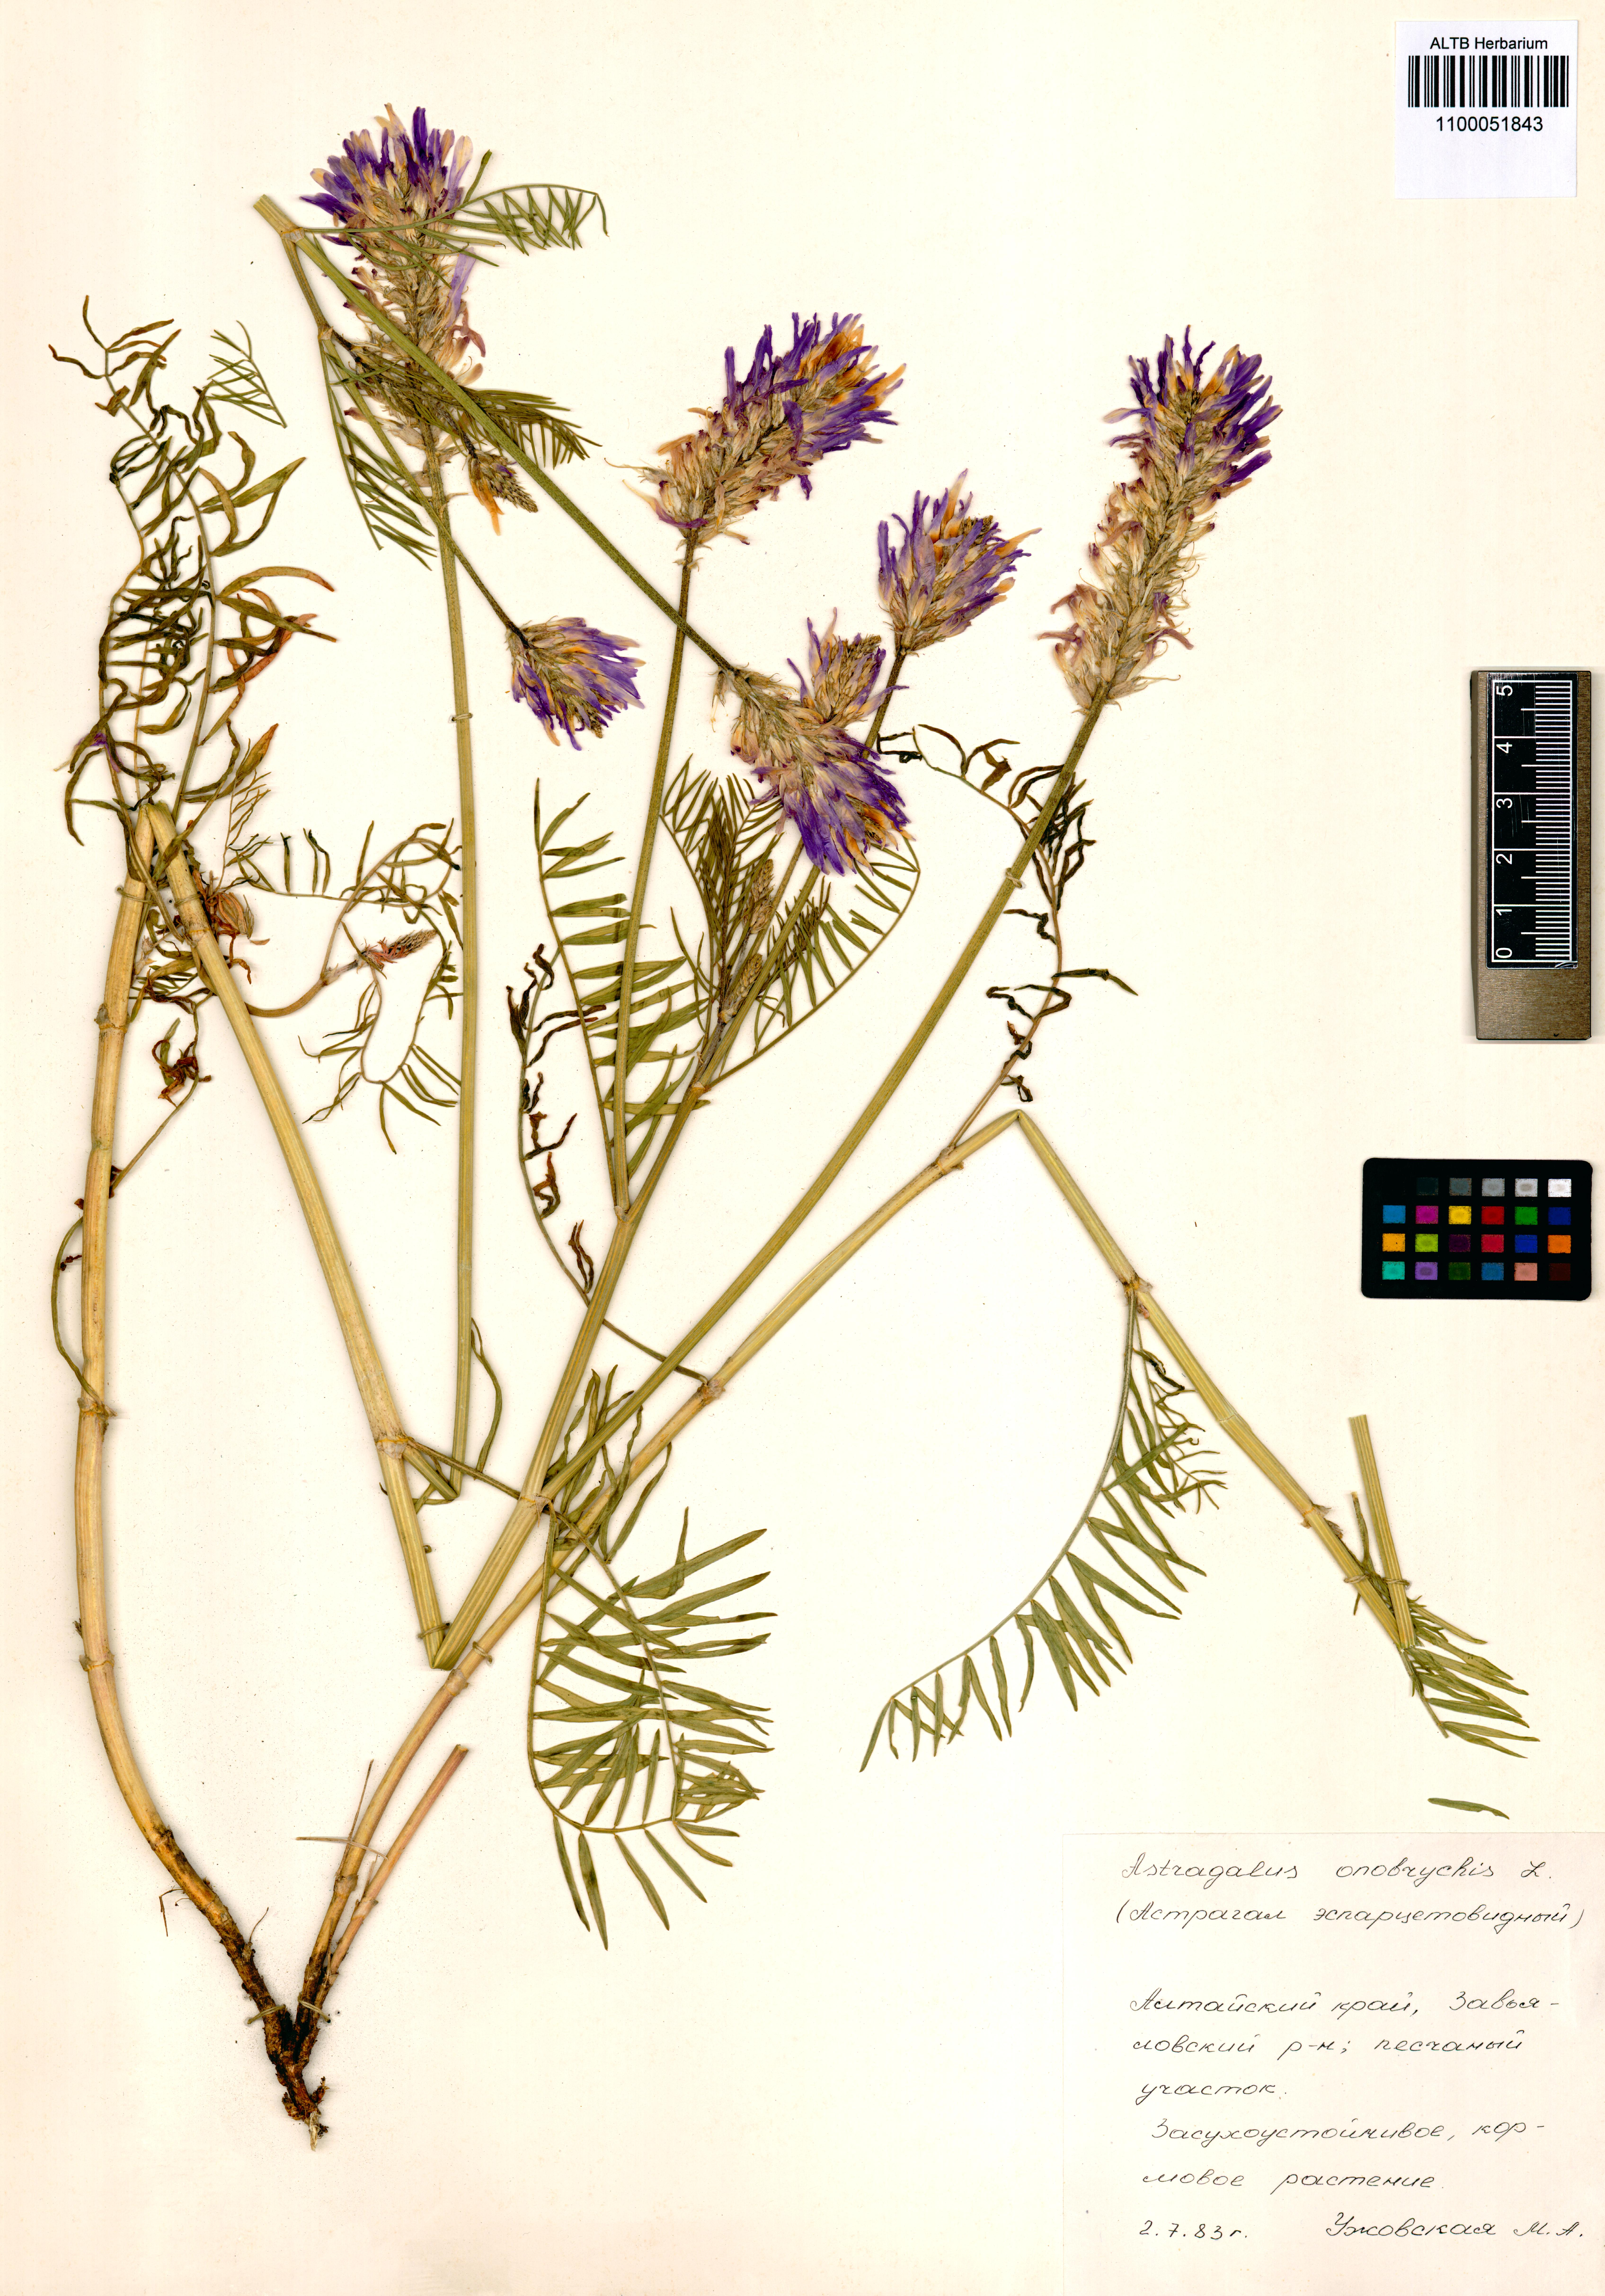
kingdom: Plantae
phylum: Tracheophyta
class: Magnoliopsida
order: Fabales
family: Fabaceae
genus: Astragalus
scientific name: Astragalus onobrychis
